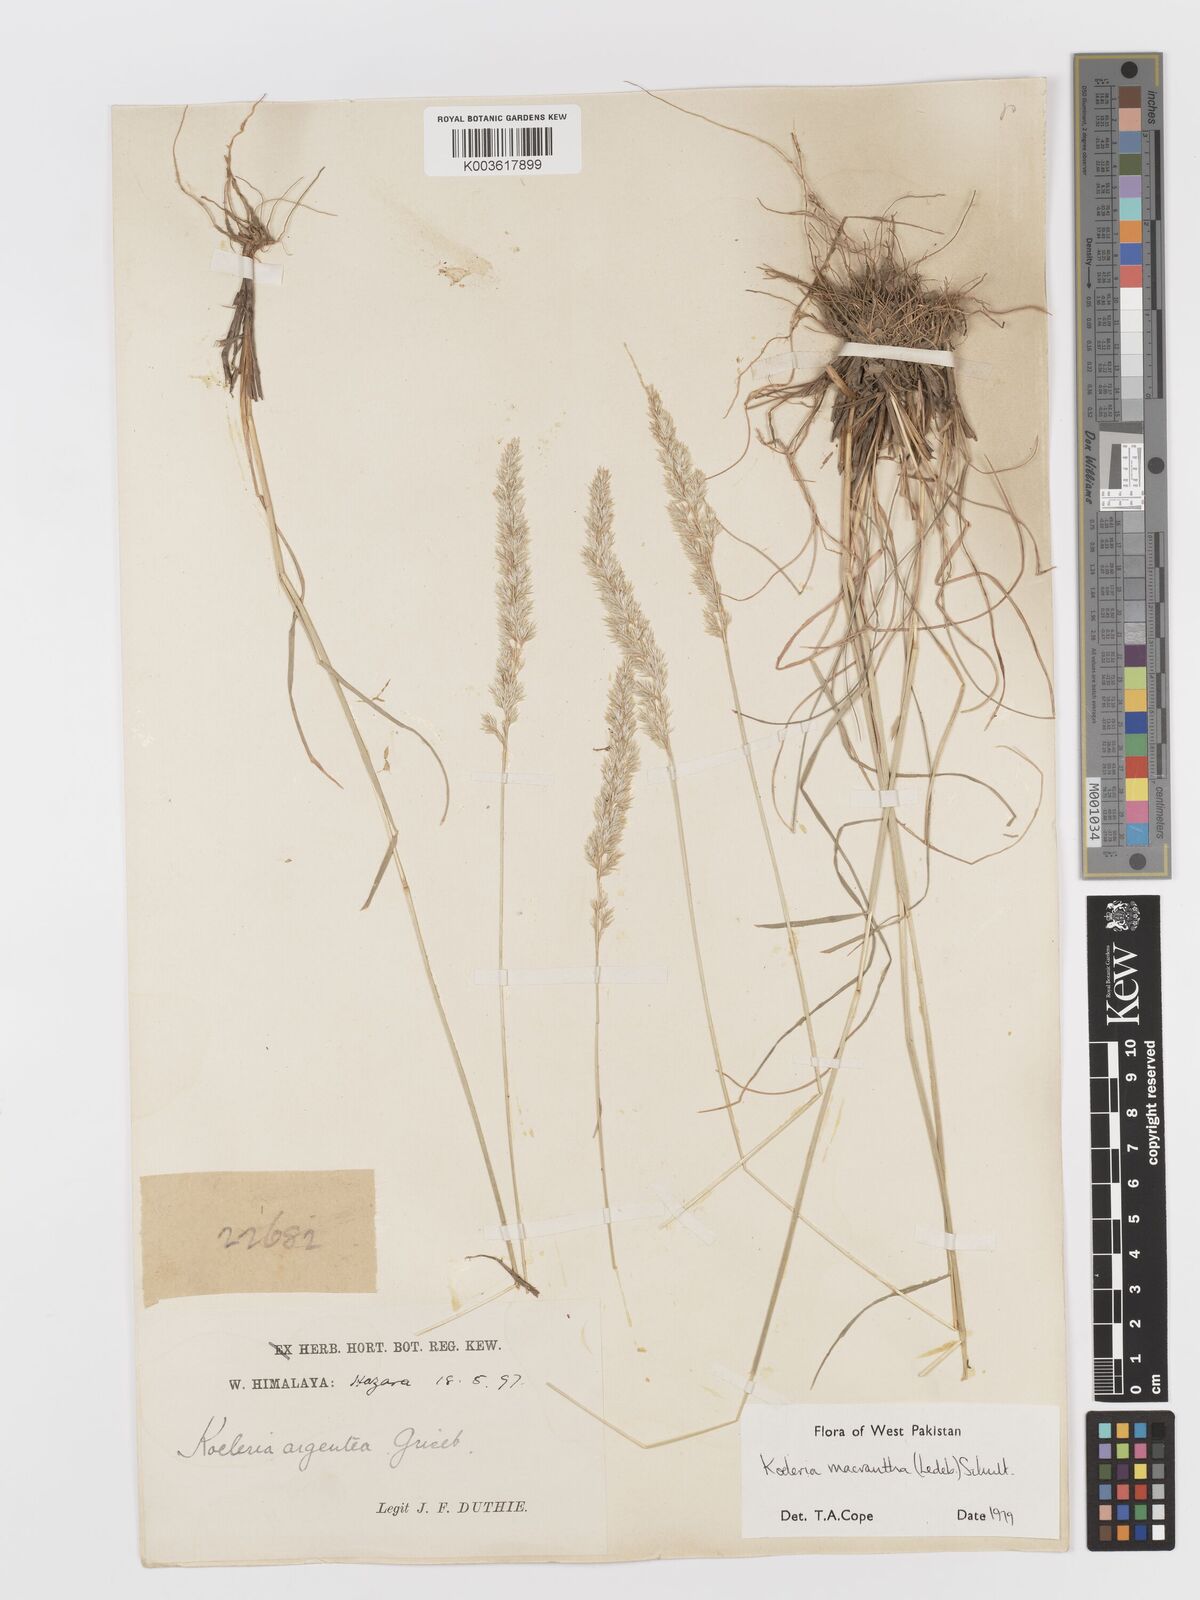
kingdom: Plantae
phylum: Tracheophyta
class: Liliopsida
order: Poales
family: Poaceae
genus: Koeleria
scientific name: Koeleria
